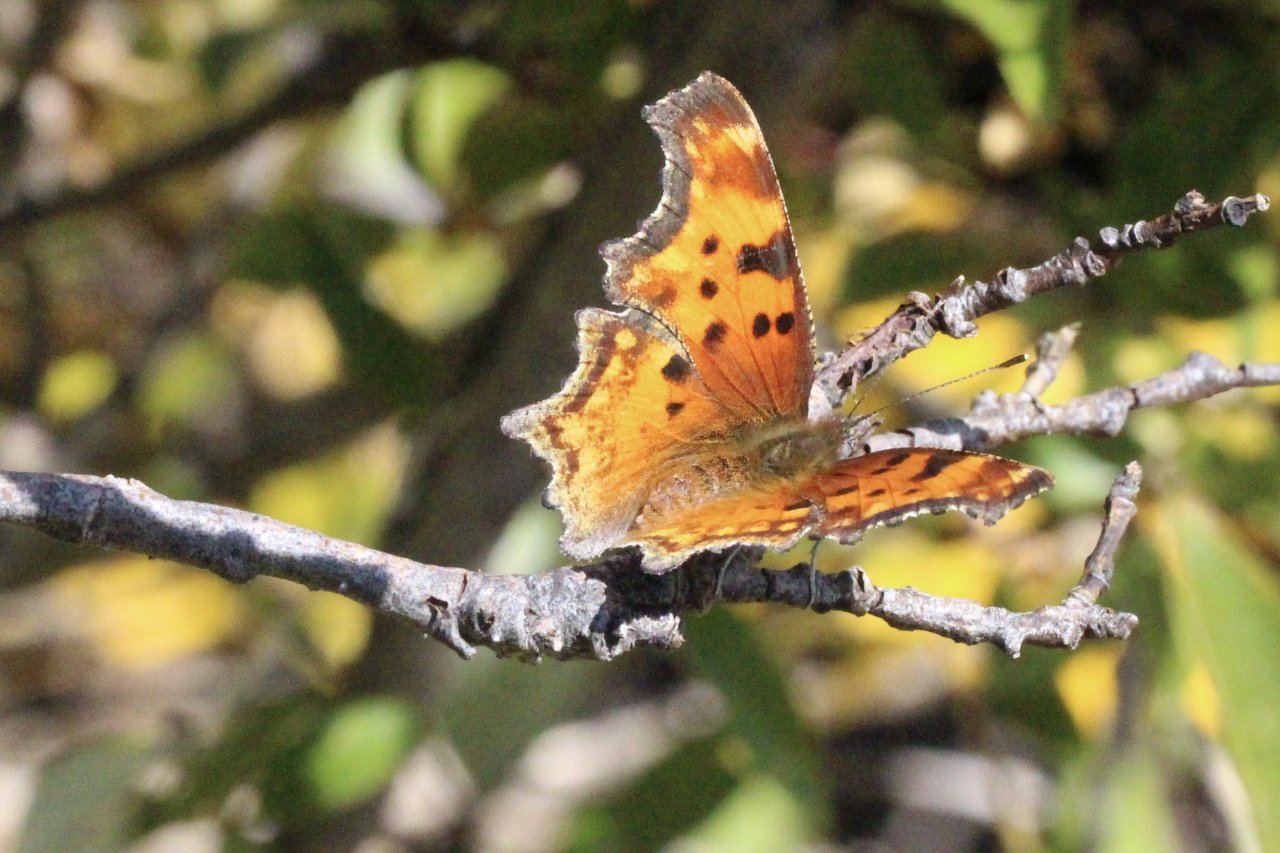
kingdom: Animalia
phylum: Arthropoda
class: Insecta
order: Lepidoptera
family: Nymphalidae
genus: Polygonia
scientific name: Polygonia gracilis
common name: Hoary Comma
